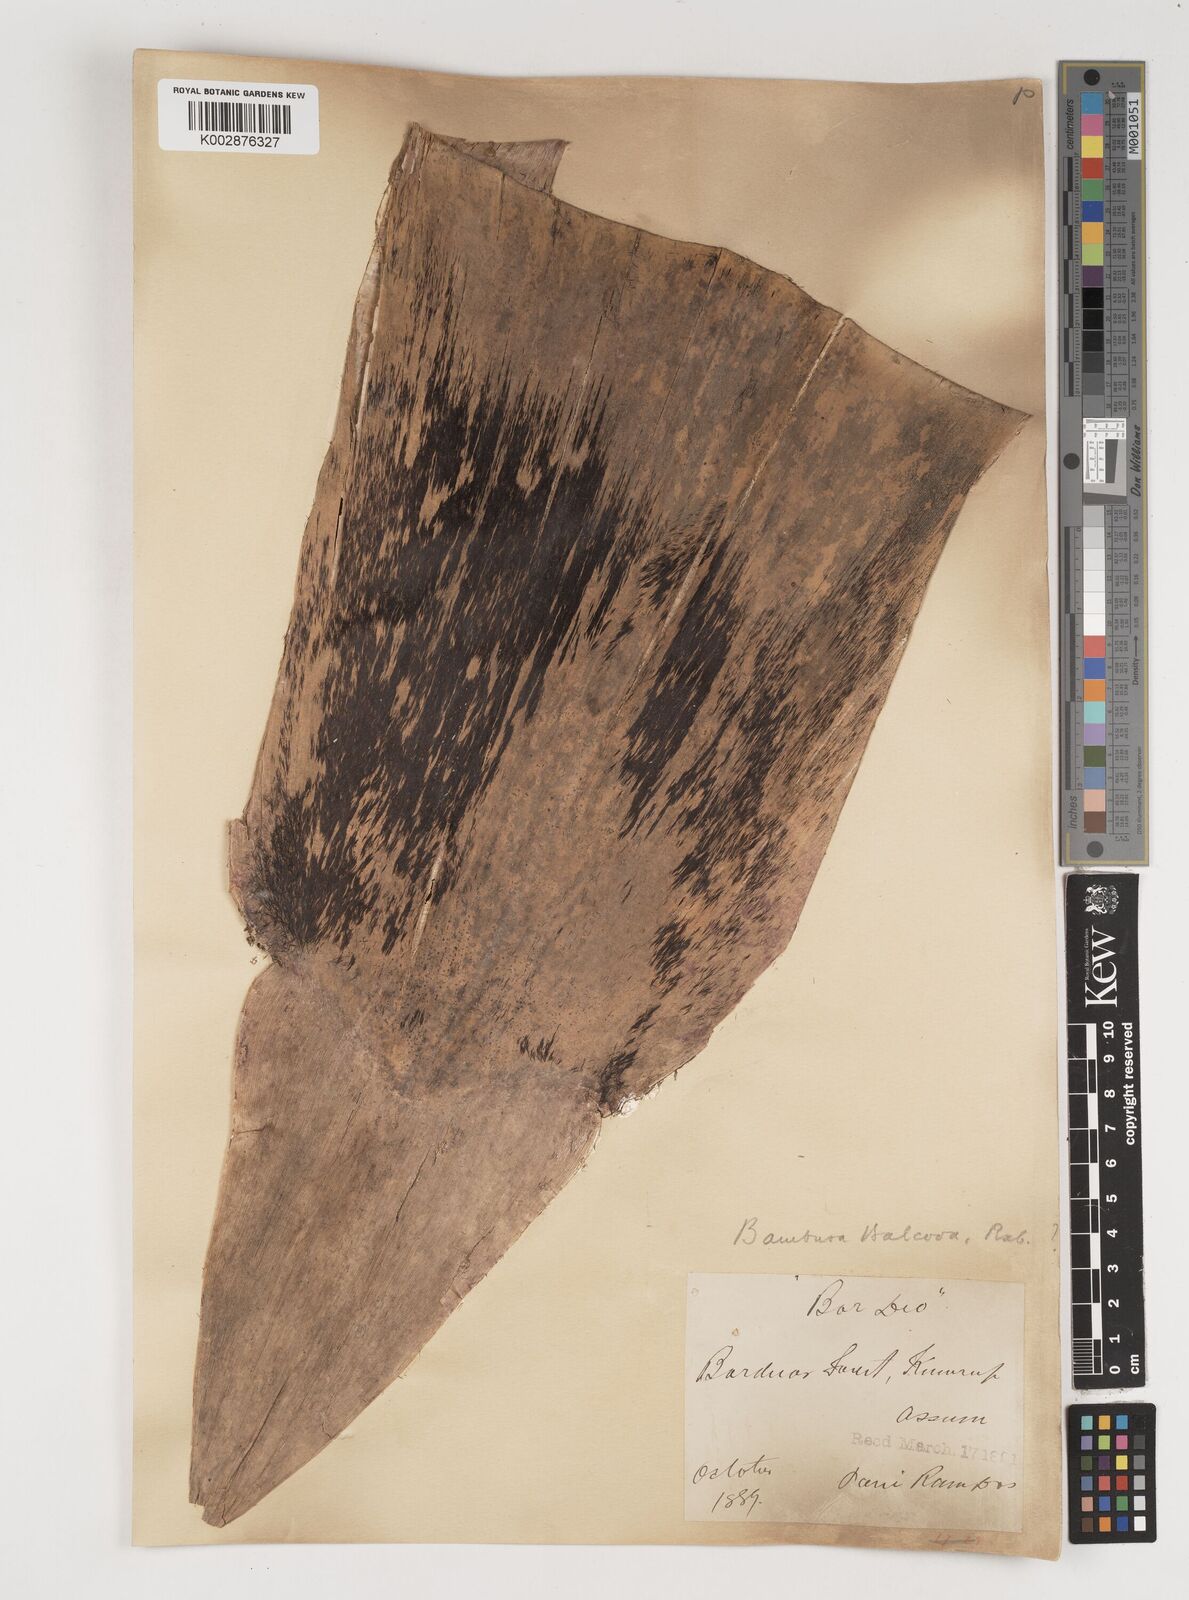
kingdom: Plantae
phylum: Tracheophyta
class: Liliopsida
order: Poales
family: Poaceae
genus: Bambusa
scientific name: Bambusa balcooa
